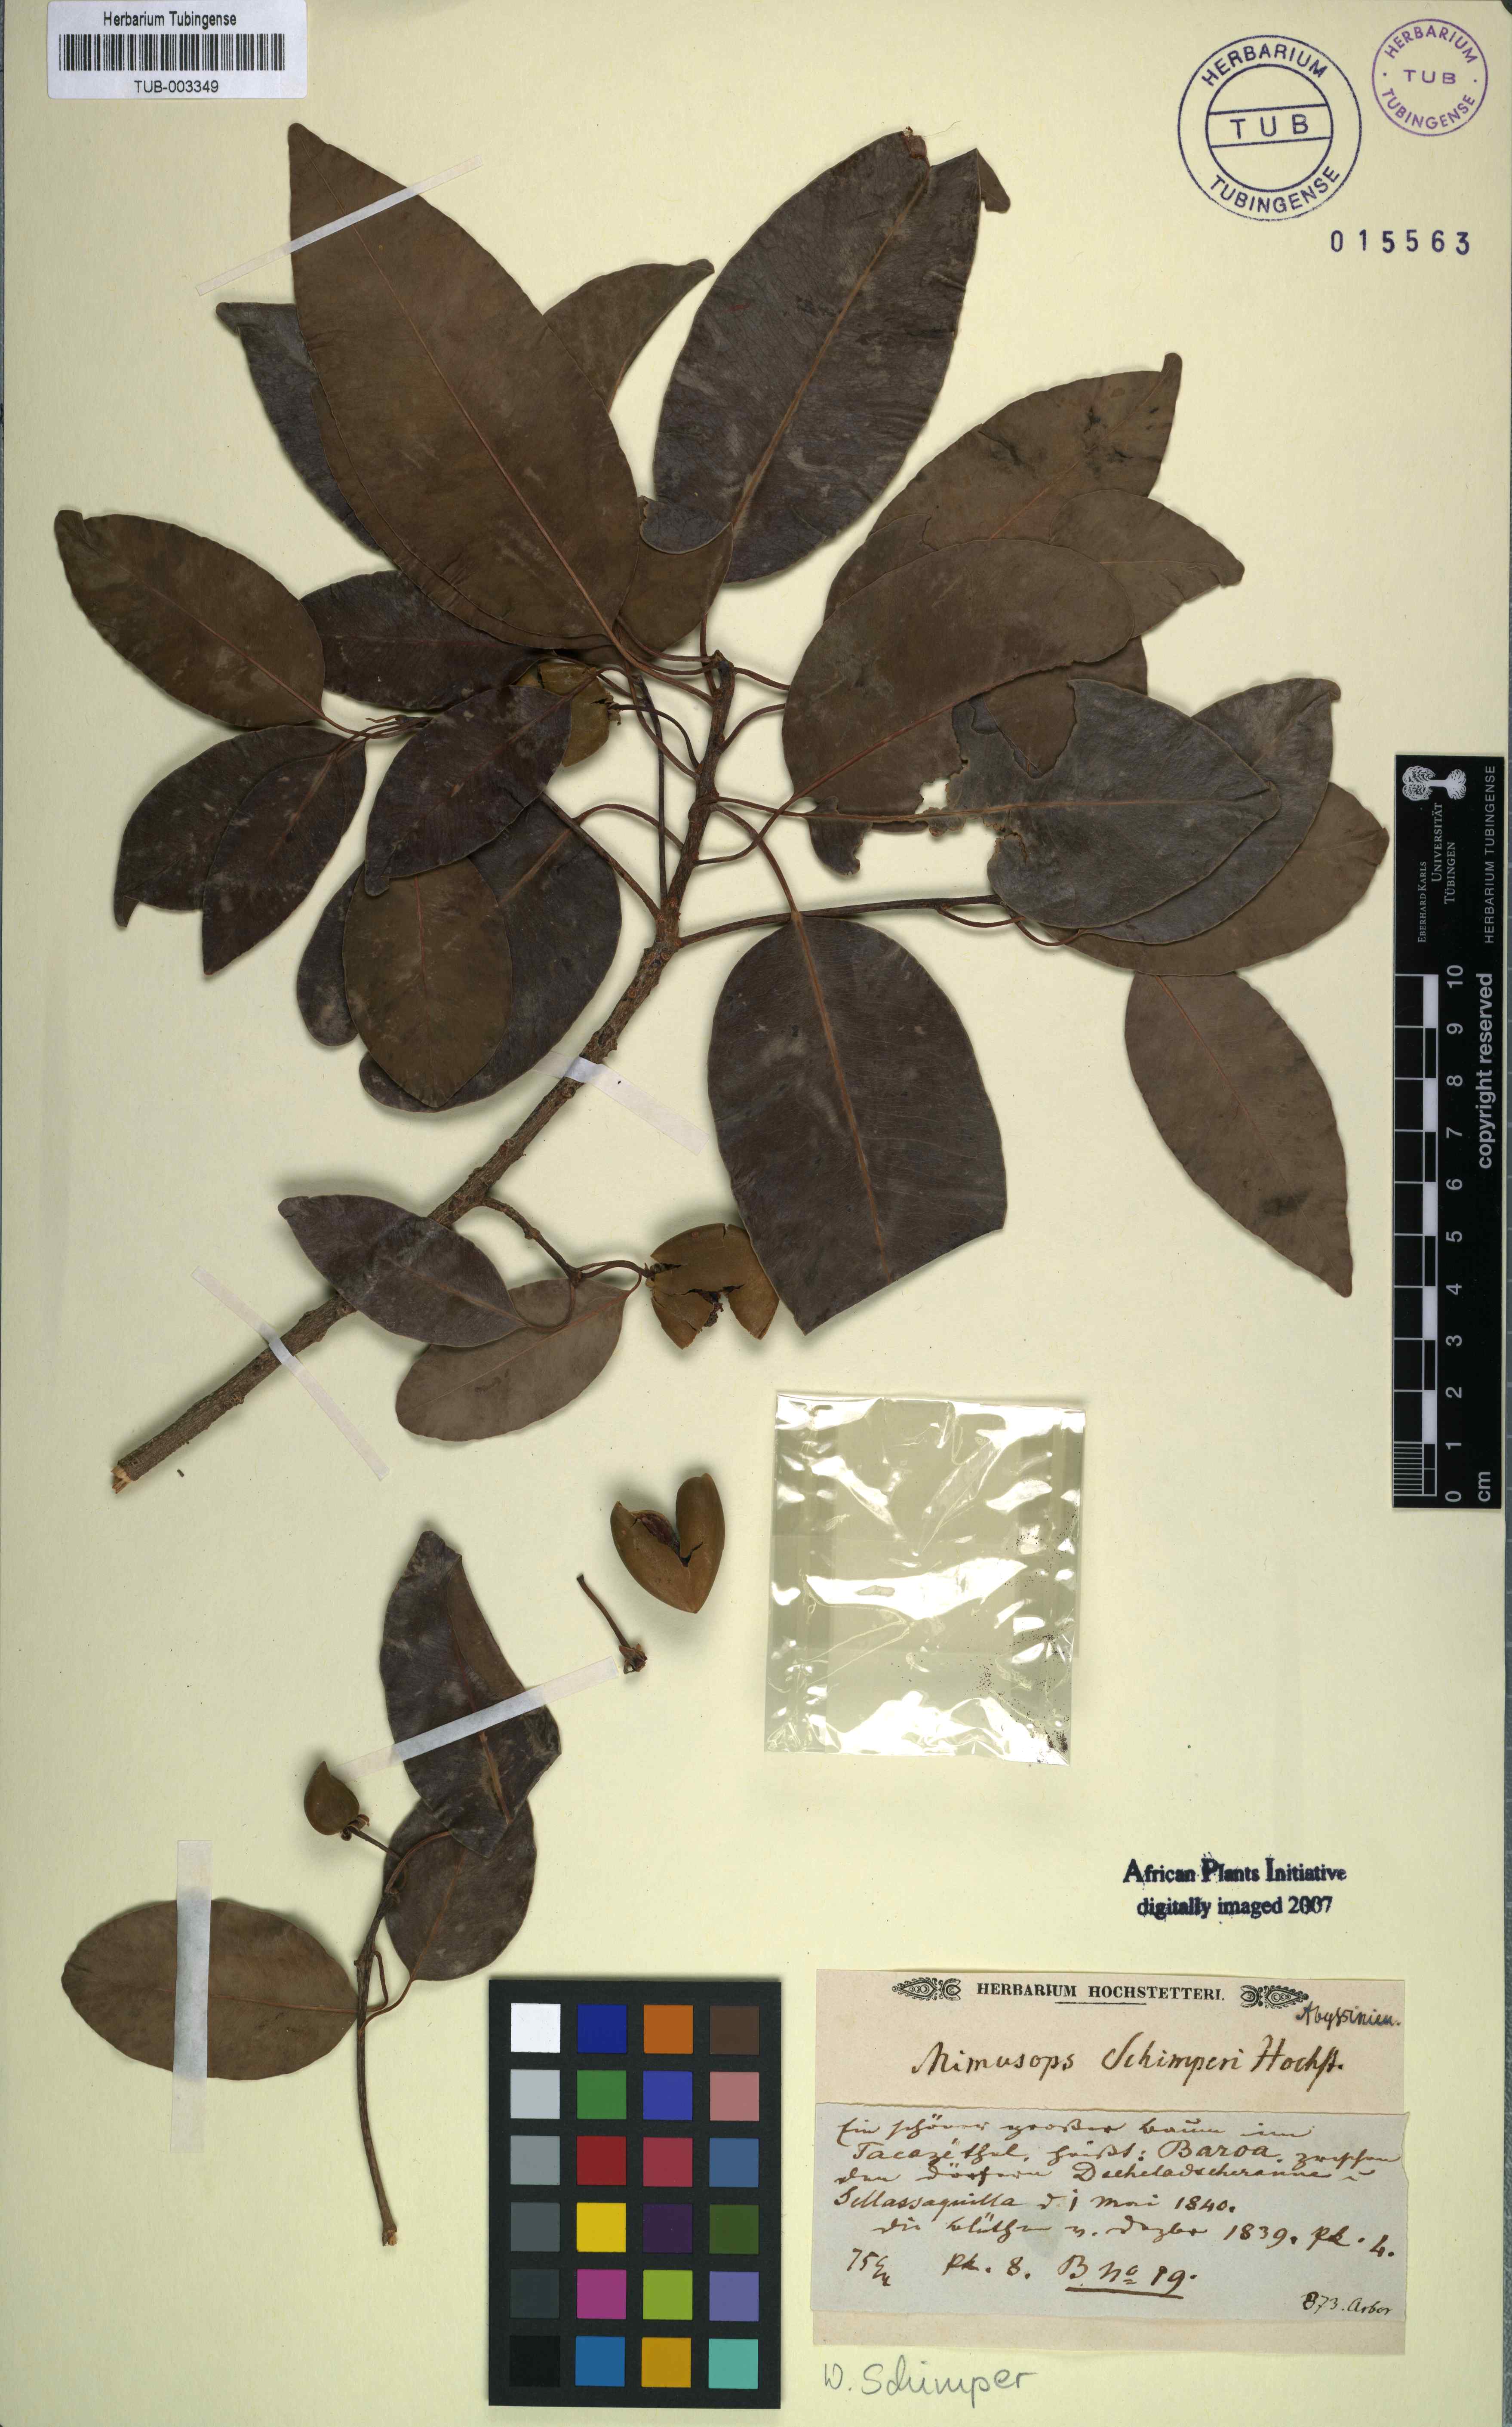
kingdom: Plantae
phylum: Tracheophyta
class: Magnoliopsida
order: Ericales
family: Sapotaceae
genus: Mimusops
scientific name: Mimusops laurifolia
